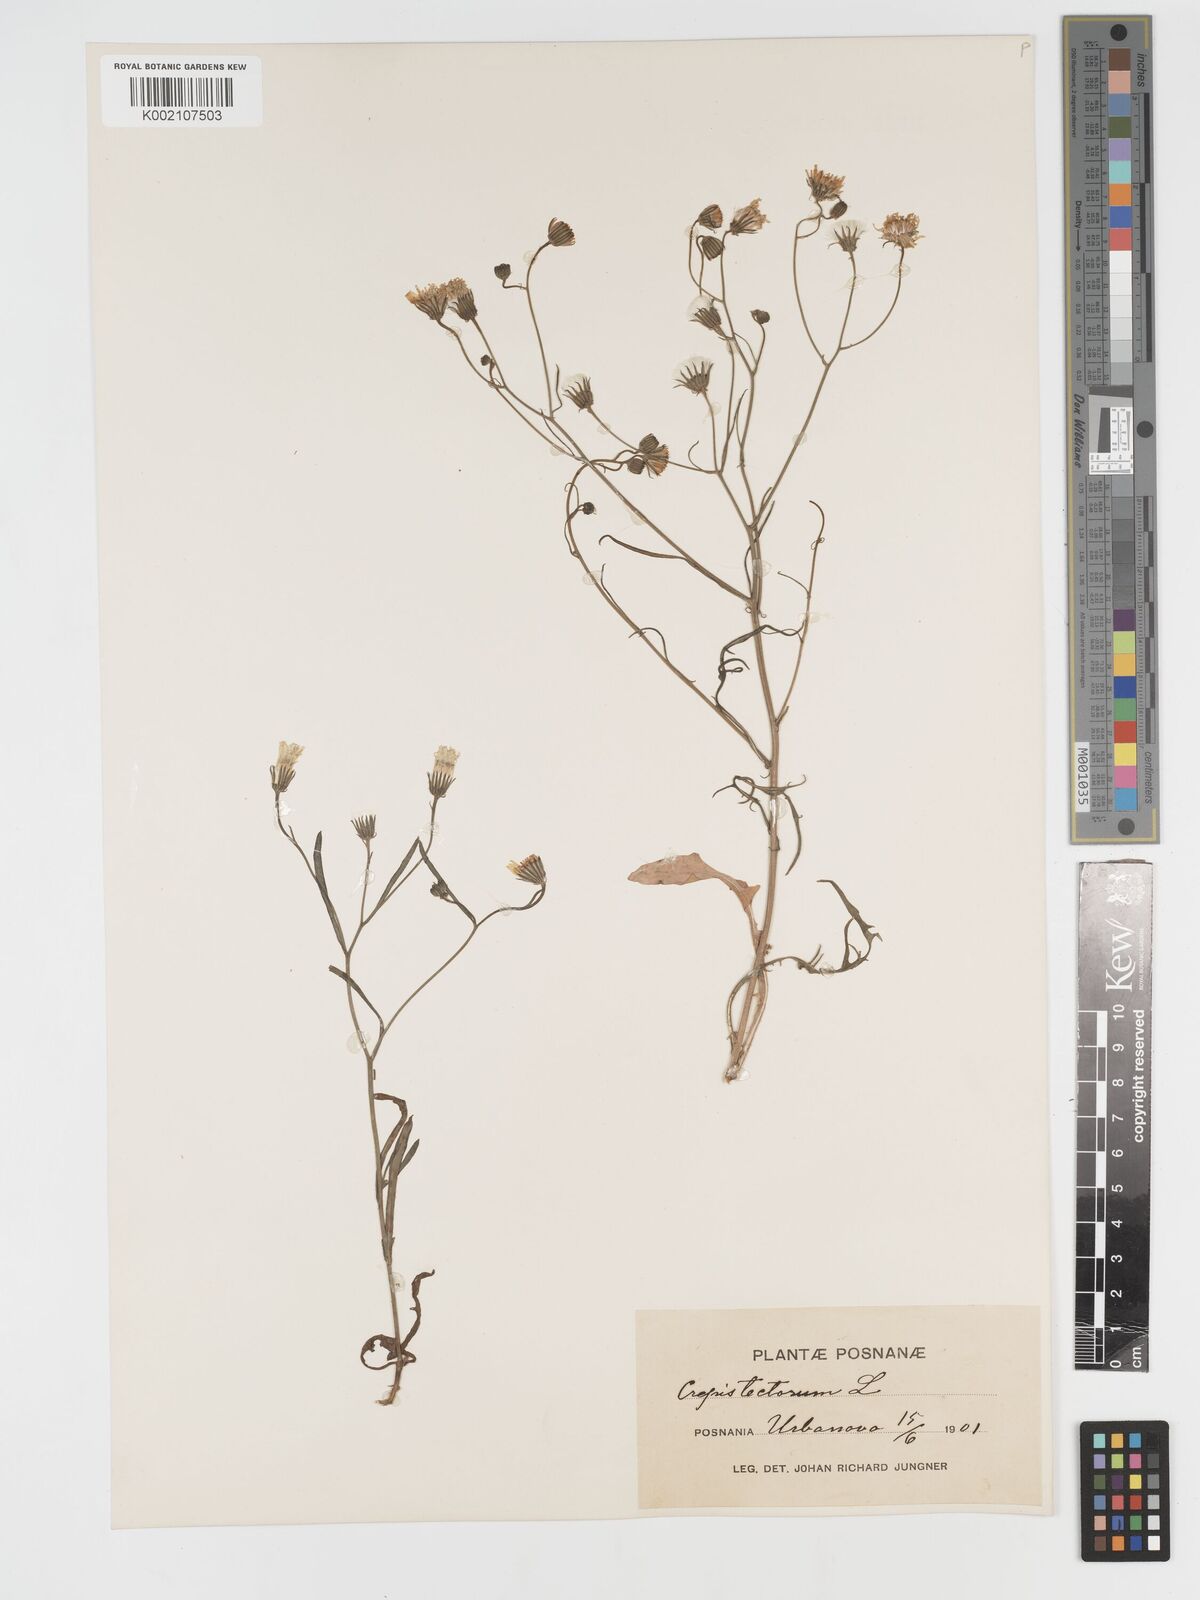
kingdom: Plantae
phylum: Tracheophyta
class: Magnoliopsida
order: Asterales
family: Asteraceae
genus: Crepis
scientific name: Crepis tectorum
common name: Narrow-leaved hawk's-beard
